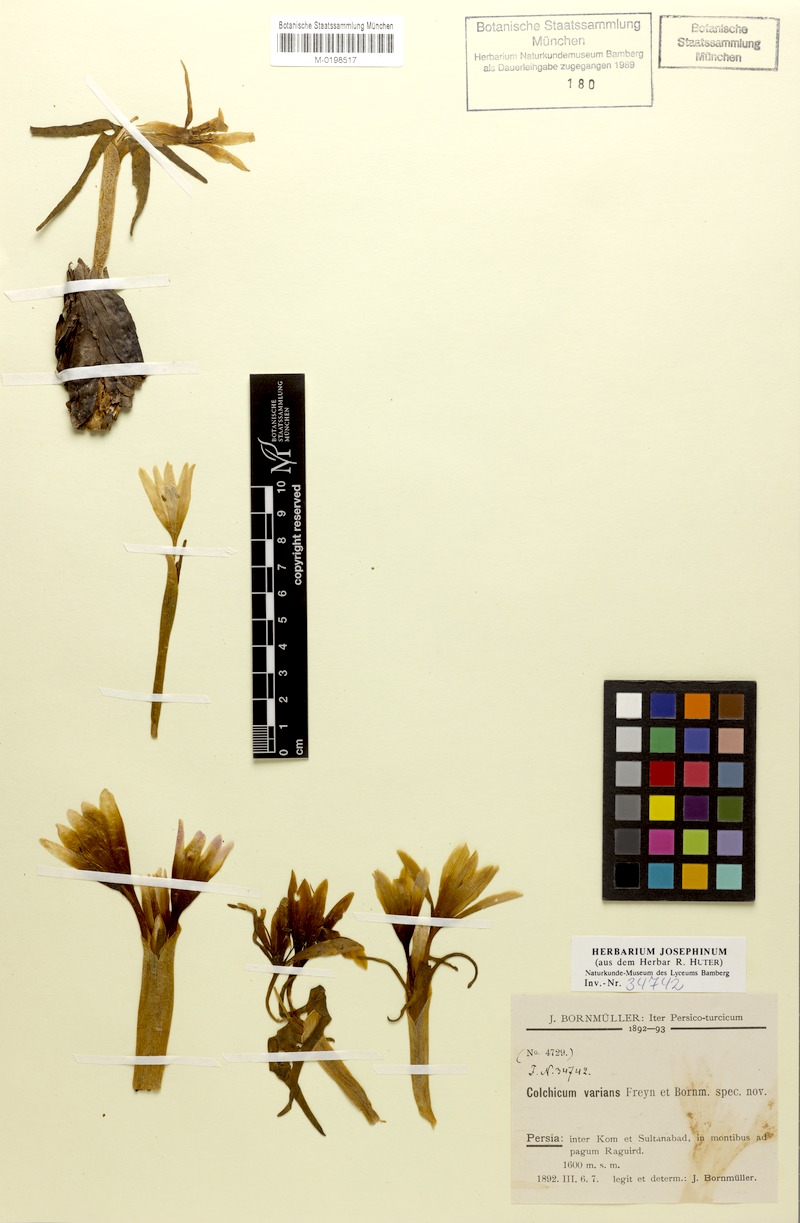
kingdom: Plantae
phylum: Tracheophyta
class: Liliopsida
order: Liliales
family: Colchicaceae
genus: Colchicum
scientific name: Colchicum varians
